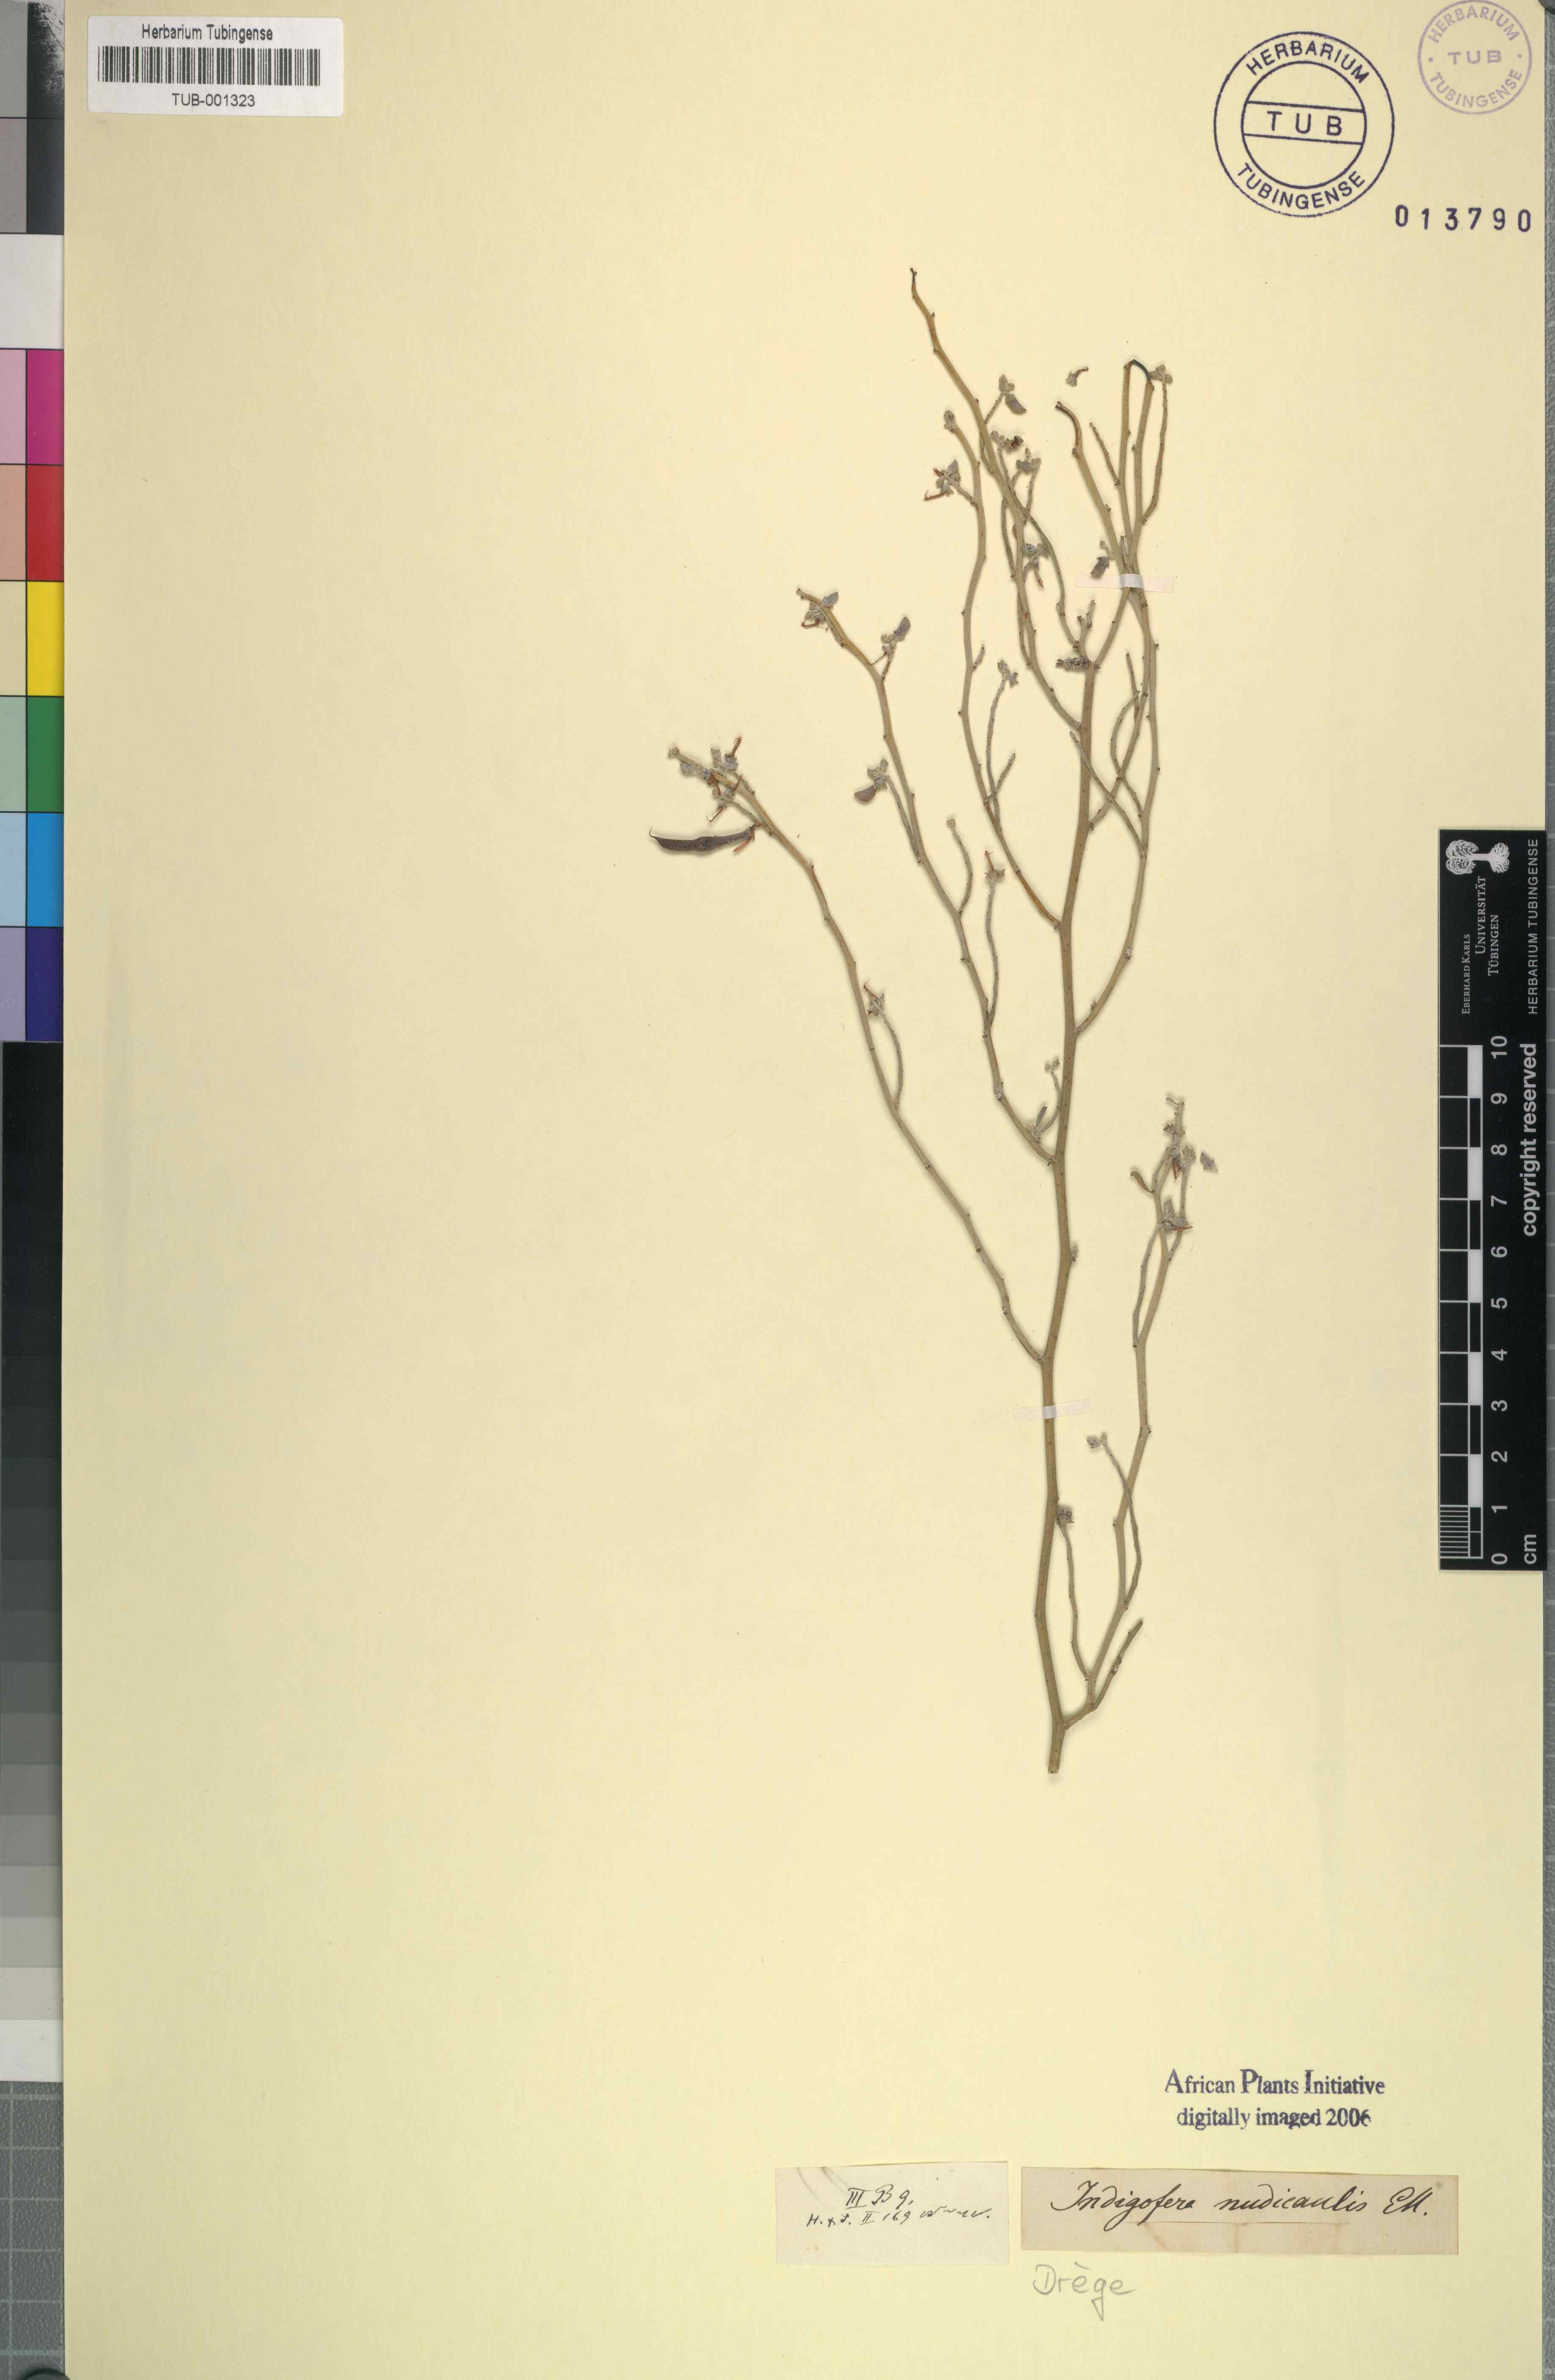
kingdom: Plantae
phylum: Tracheophyta
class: Magnoliopsida
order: Fabales
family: Fabaceae
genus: Indigofera
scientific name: Indigofera nudicaulis
